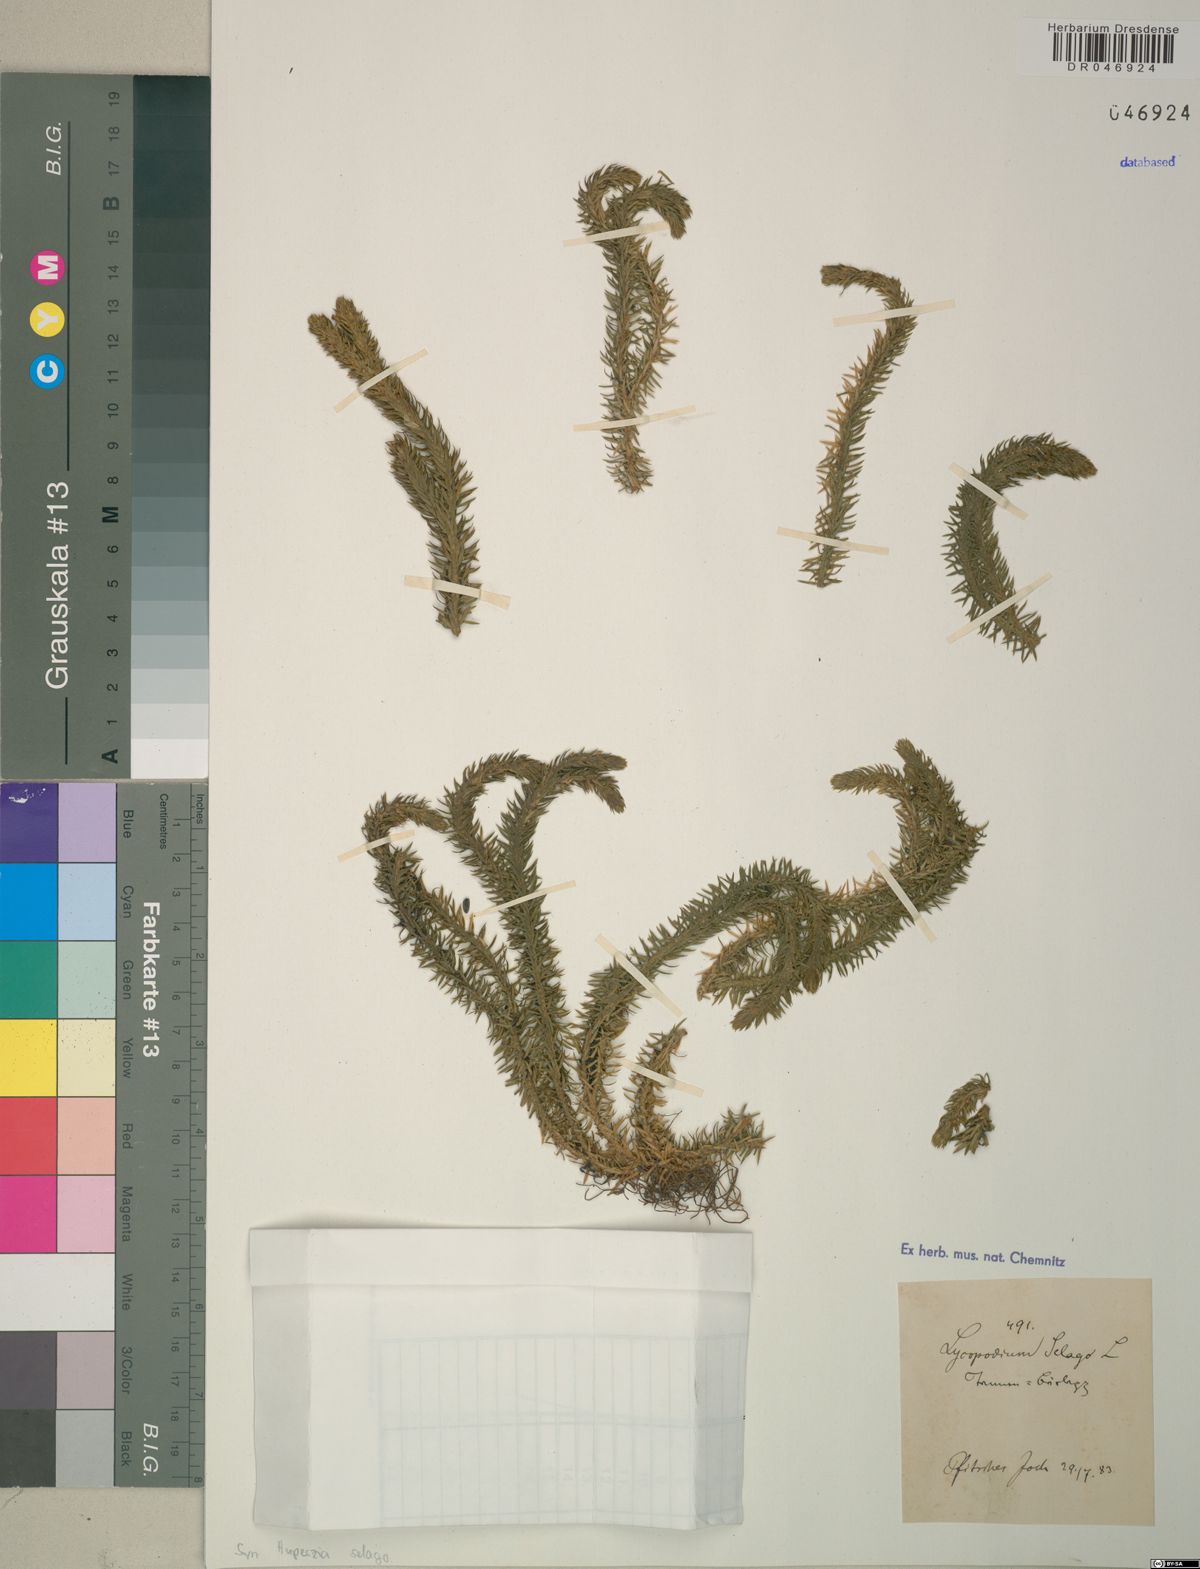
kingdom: Plantae
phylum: Tracheophyta
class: Lycopodiopsida
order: Lycopodiales
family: Lycopodiaceae
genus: Huperzia
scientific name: Huperzia selago
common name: Northern firmoss
